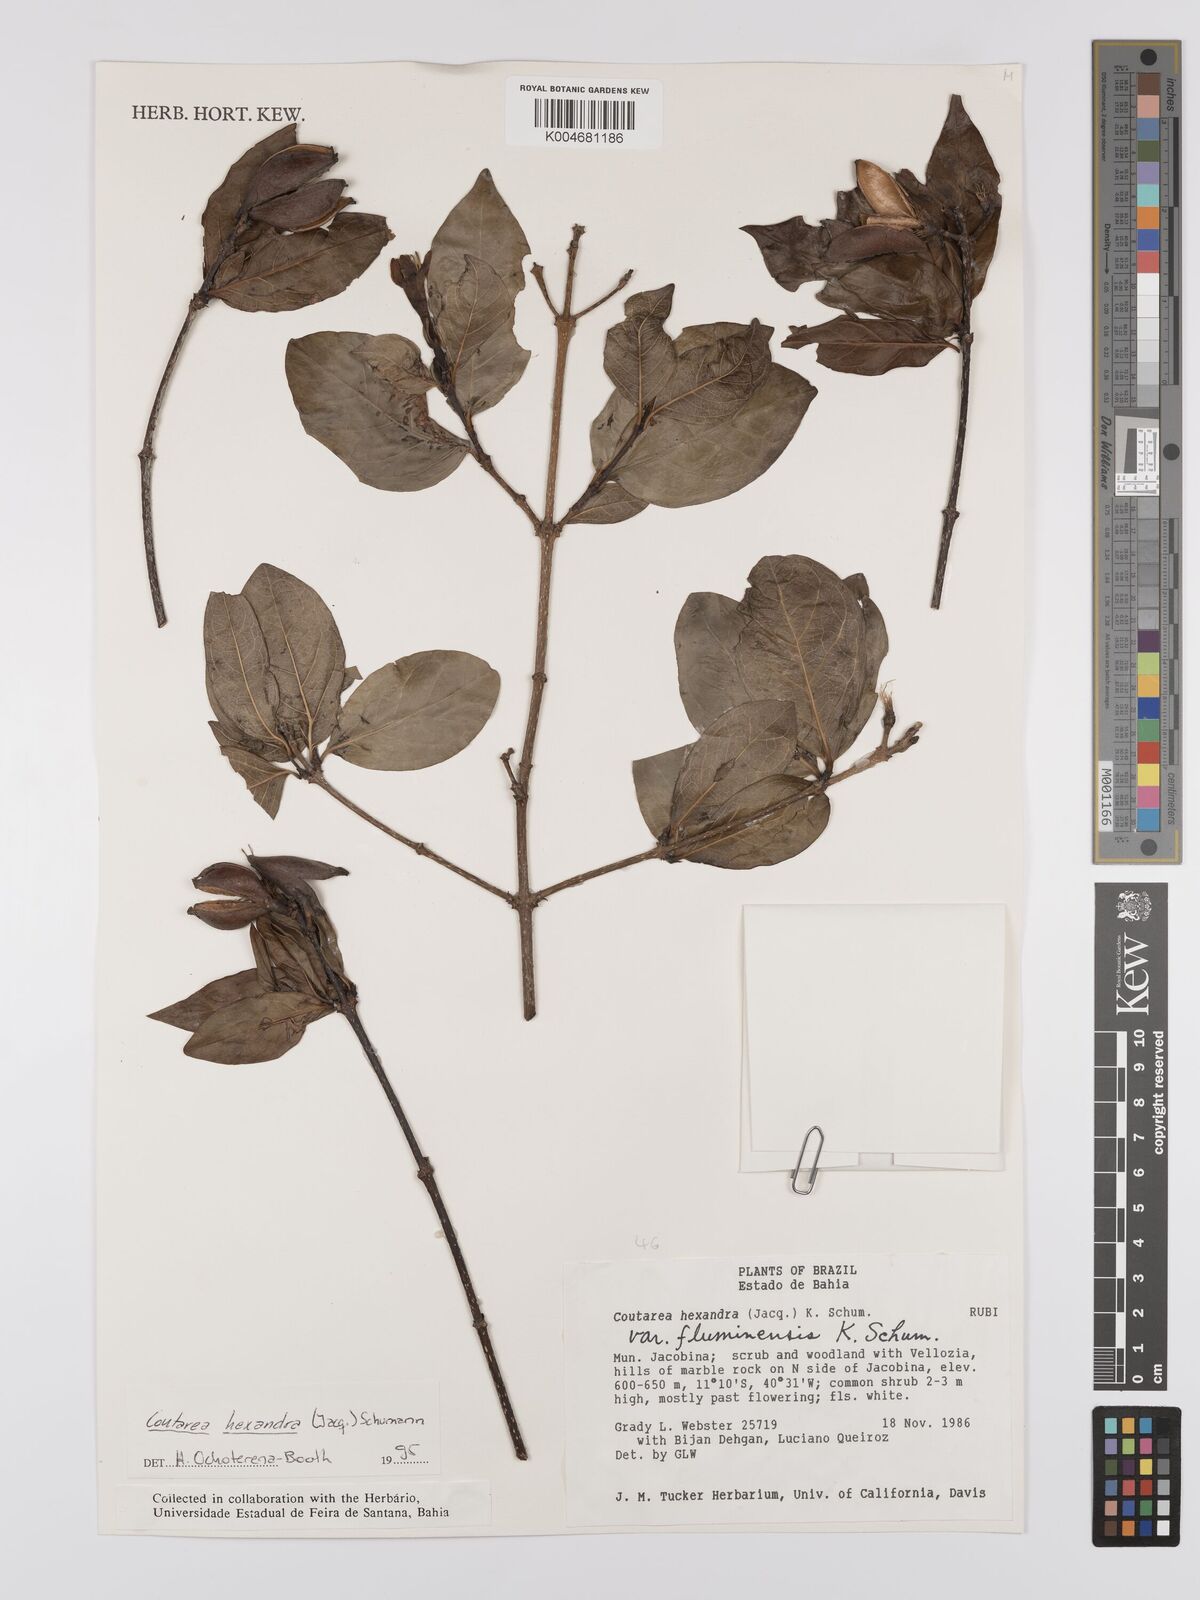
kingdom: Plantae
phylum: Tracheophyta
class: Magnoliopsida
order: Gentianales
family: Rubiaceae
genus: Coutarea
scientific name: Coutarea hexandra
